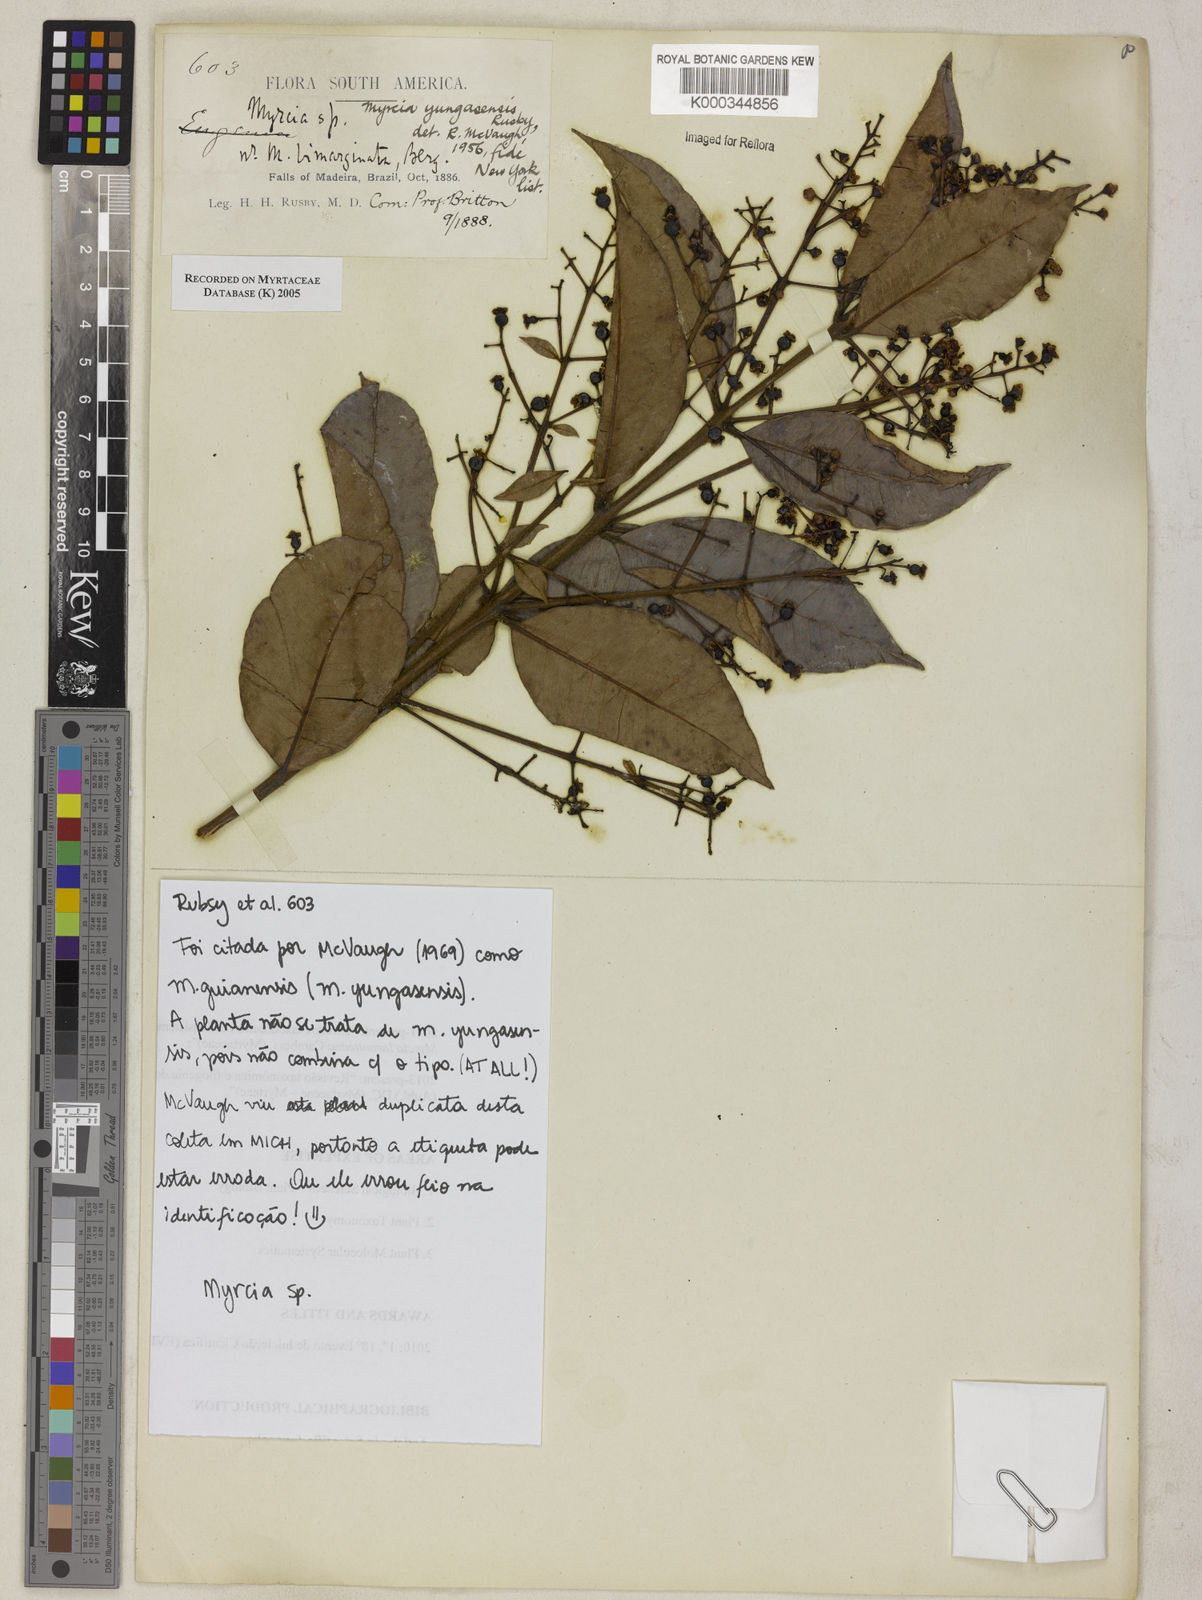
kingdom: Plantae
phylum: Tracheophyta
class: Magnoliopsida
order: Myrtales
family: Myrtaceae
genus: Myrcia
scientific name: Myrcia guianensis
